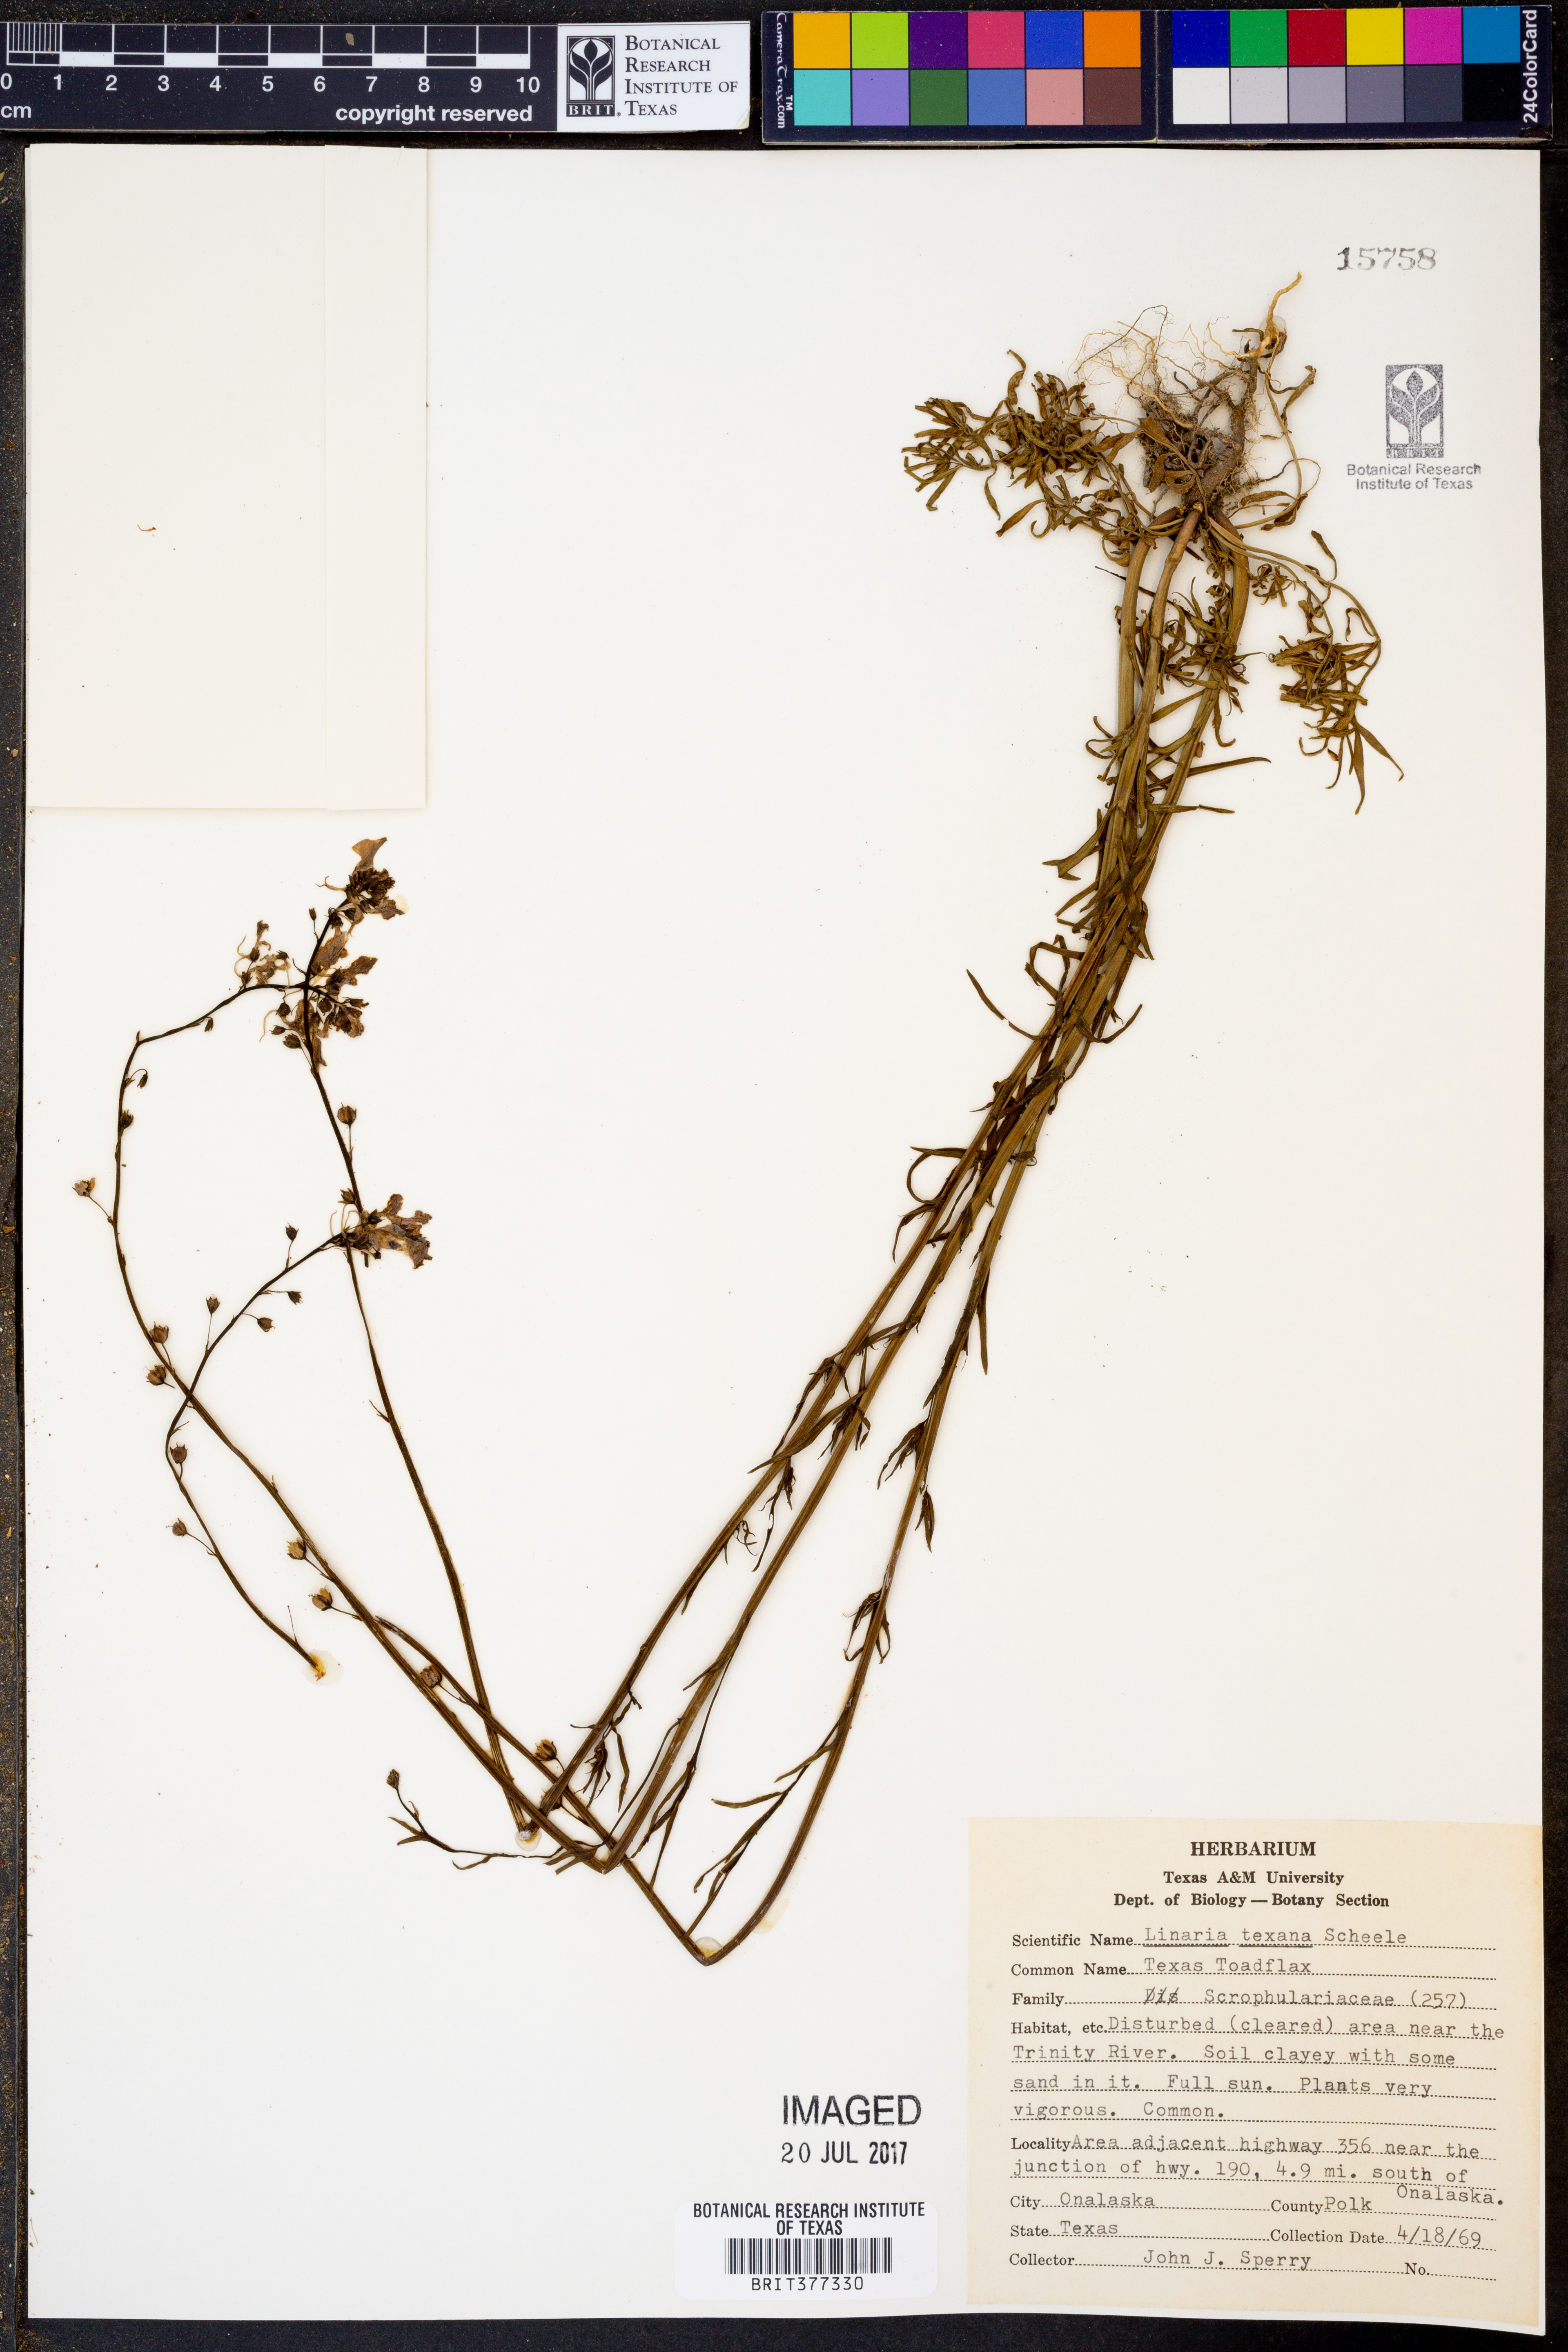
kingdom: Plantae
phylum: Tracheophyta
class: Magnoliopsida
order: Lamiales
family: Plantaginaceae
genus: Nuttallanthus
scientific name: Nuttallanthus texanus
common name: Texas toadflax
